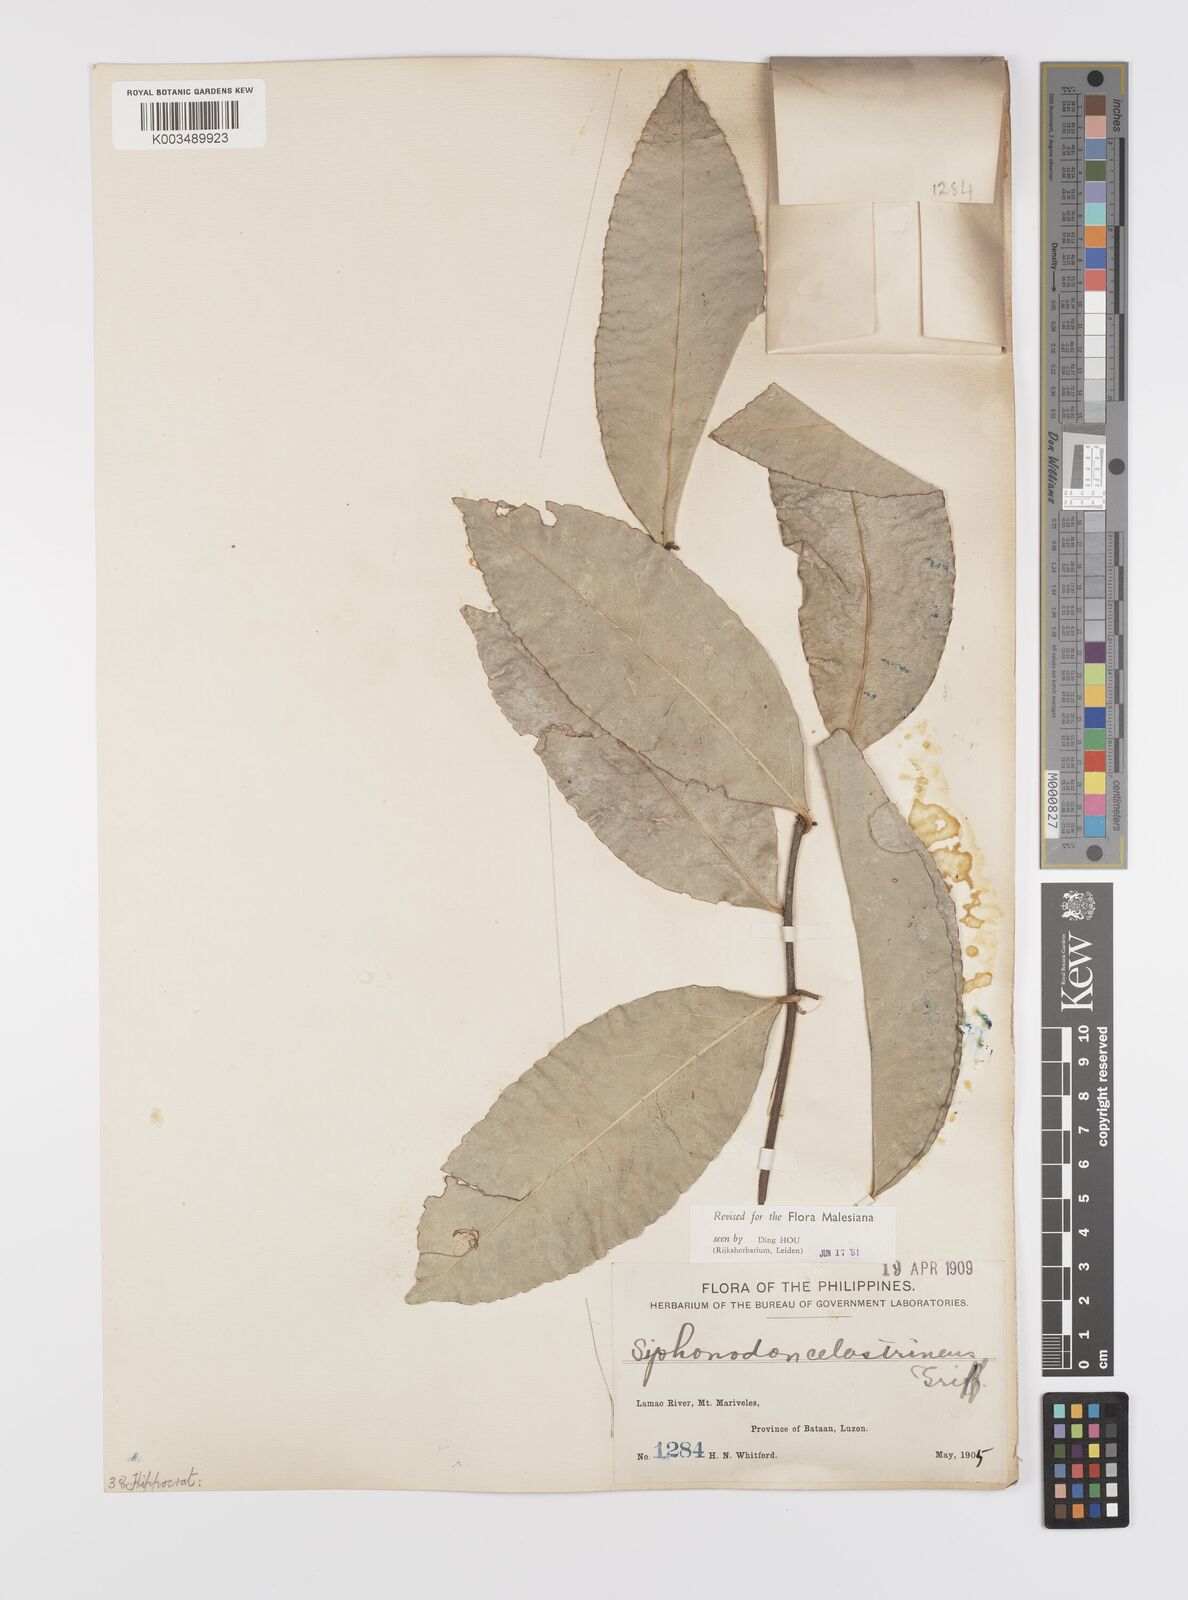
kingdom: Plantae
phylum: Tracheophyta
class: Magnoliopsida
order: Celastrales
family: Celastraceae
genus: Siphonodon
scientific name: Siphonodon celastrineus
